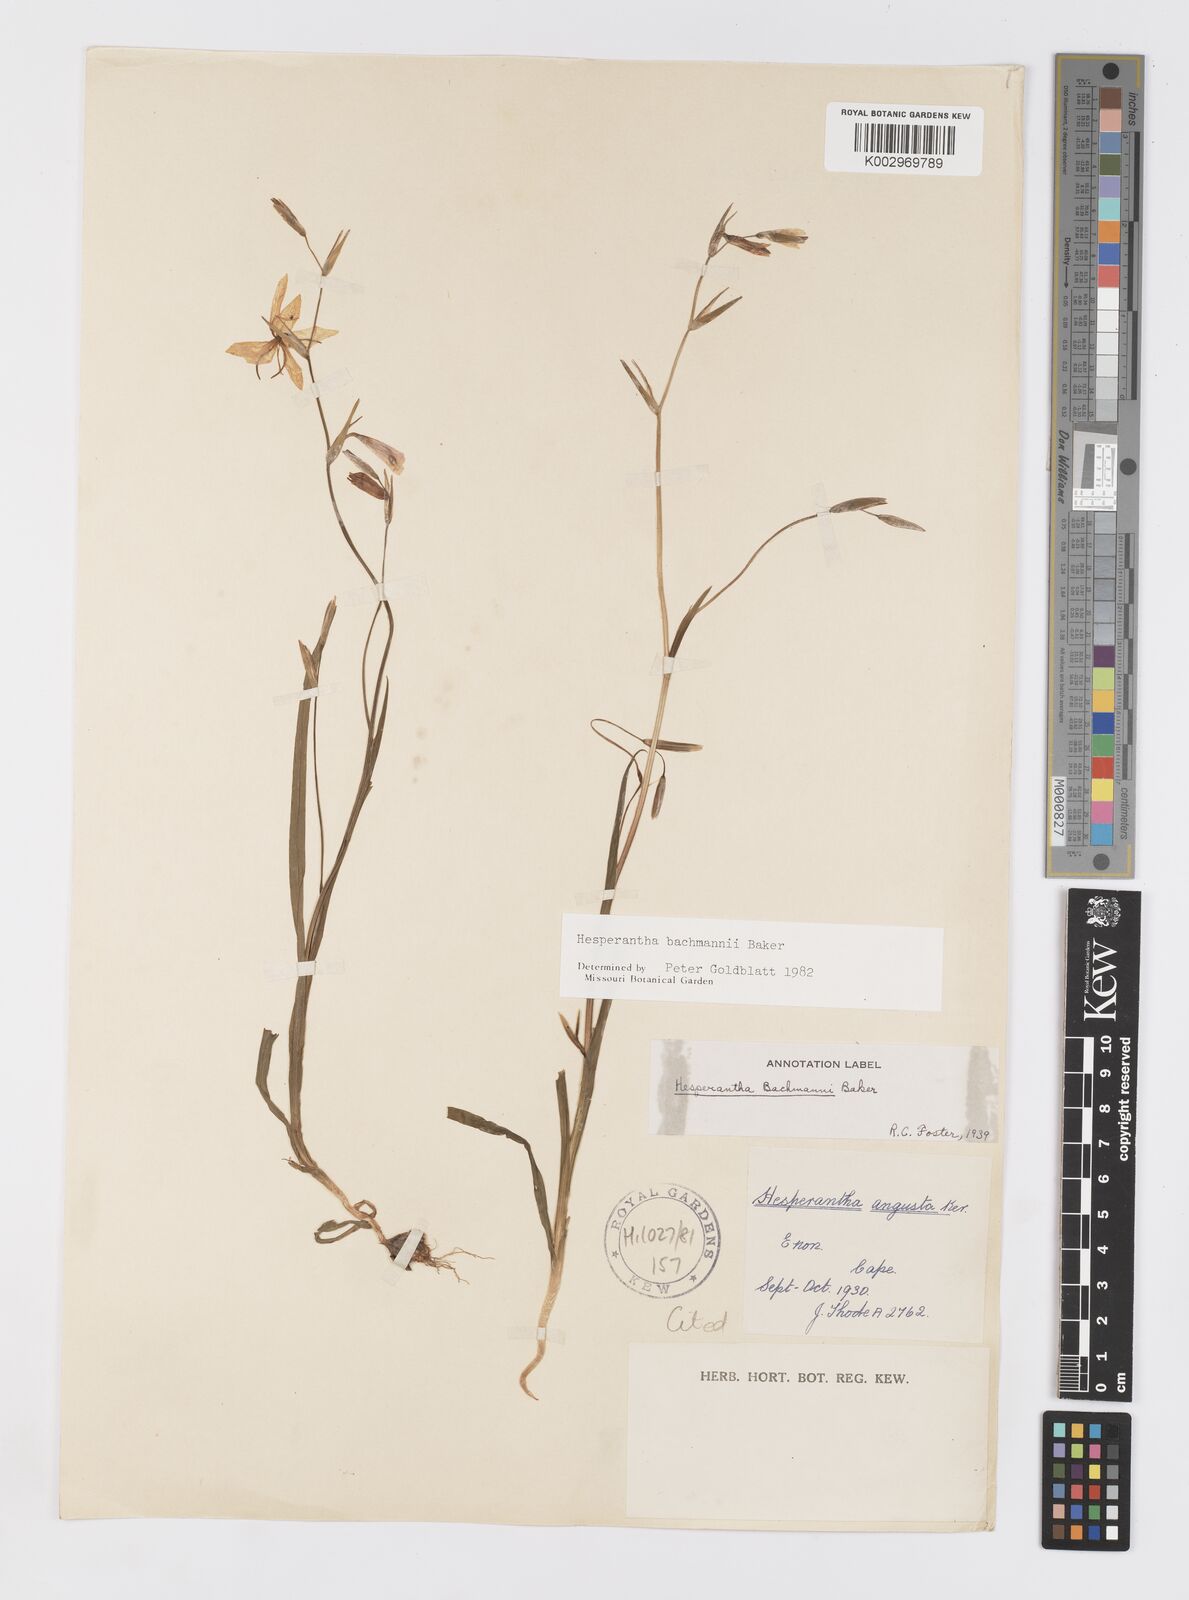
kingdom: Plantae
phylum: Tracheophyta
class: Liliopsida
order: Asparagales
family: Iridaceae
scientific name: Iridaceae
